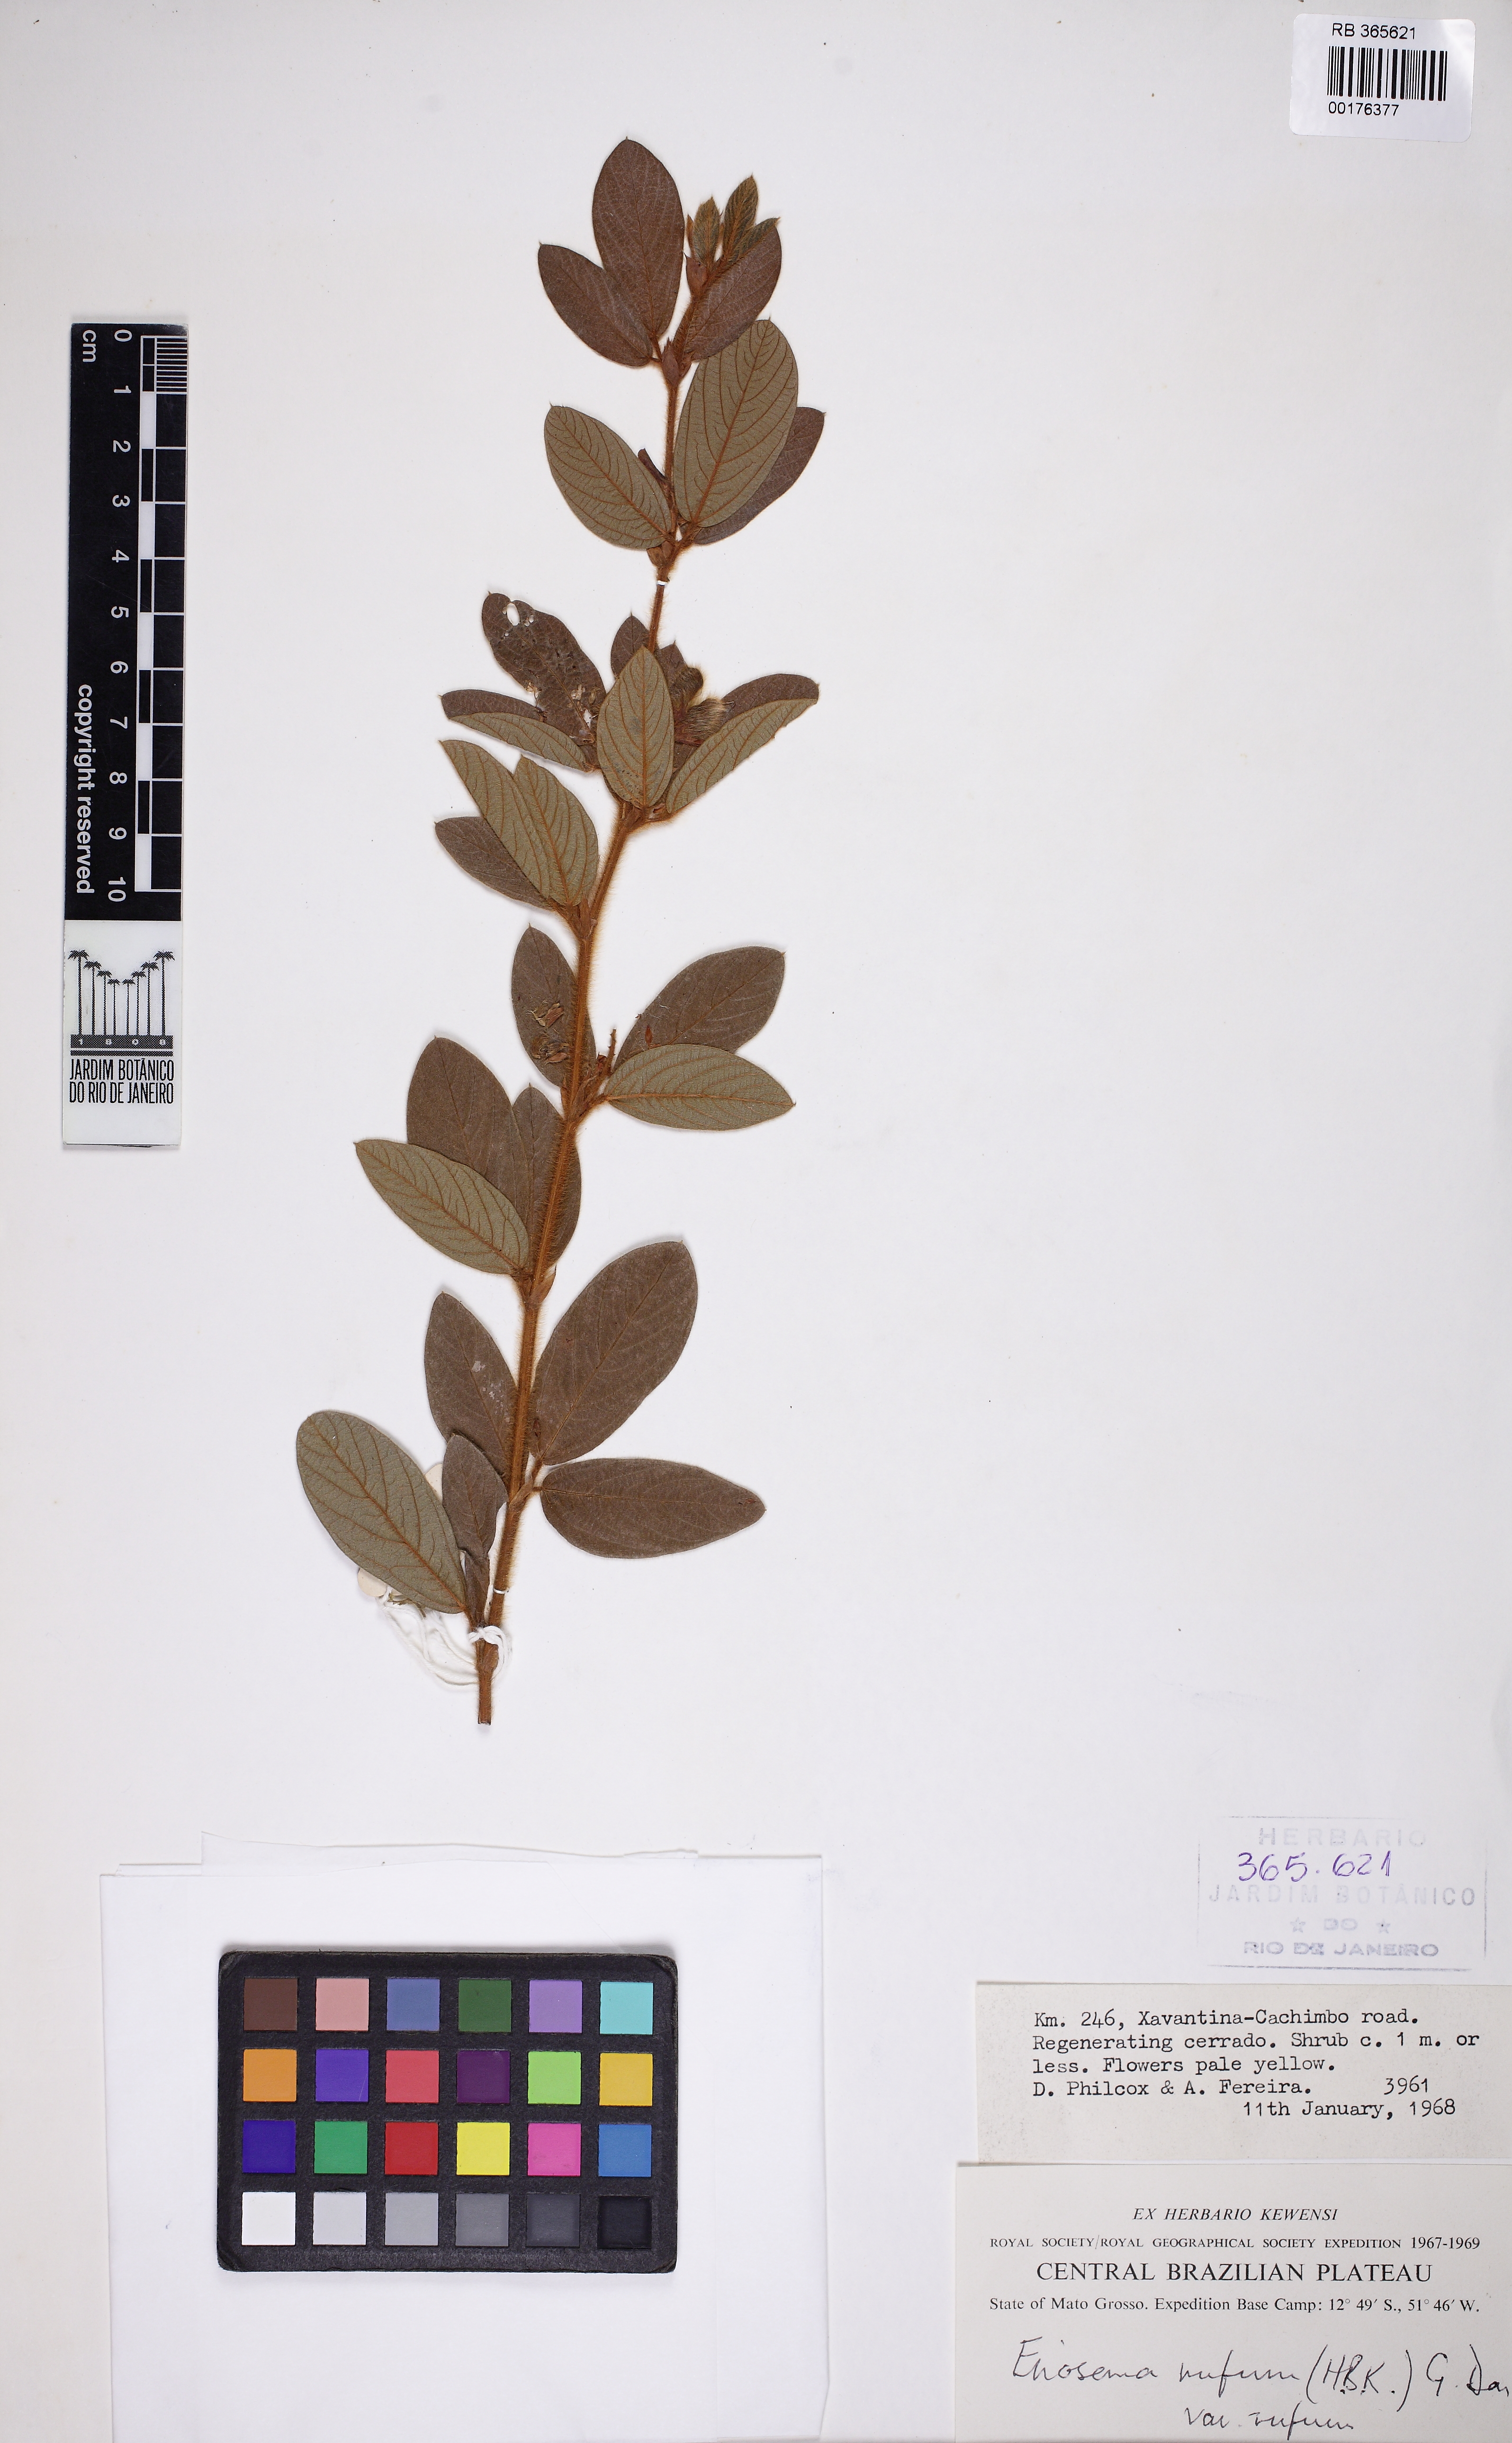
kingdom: Plantae
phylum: Tracheophyta
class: Magnoliopsida
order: Fabales
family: Fabaceae
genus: Eriosema
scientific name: Eriosema rufum
